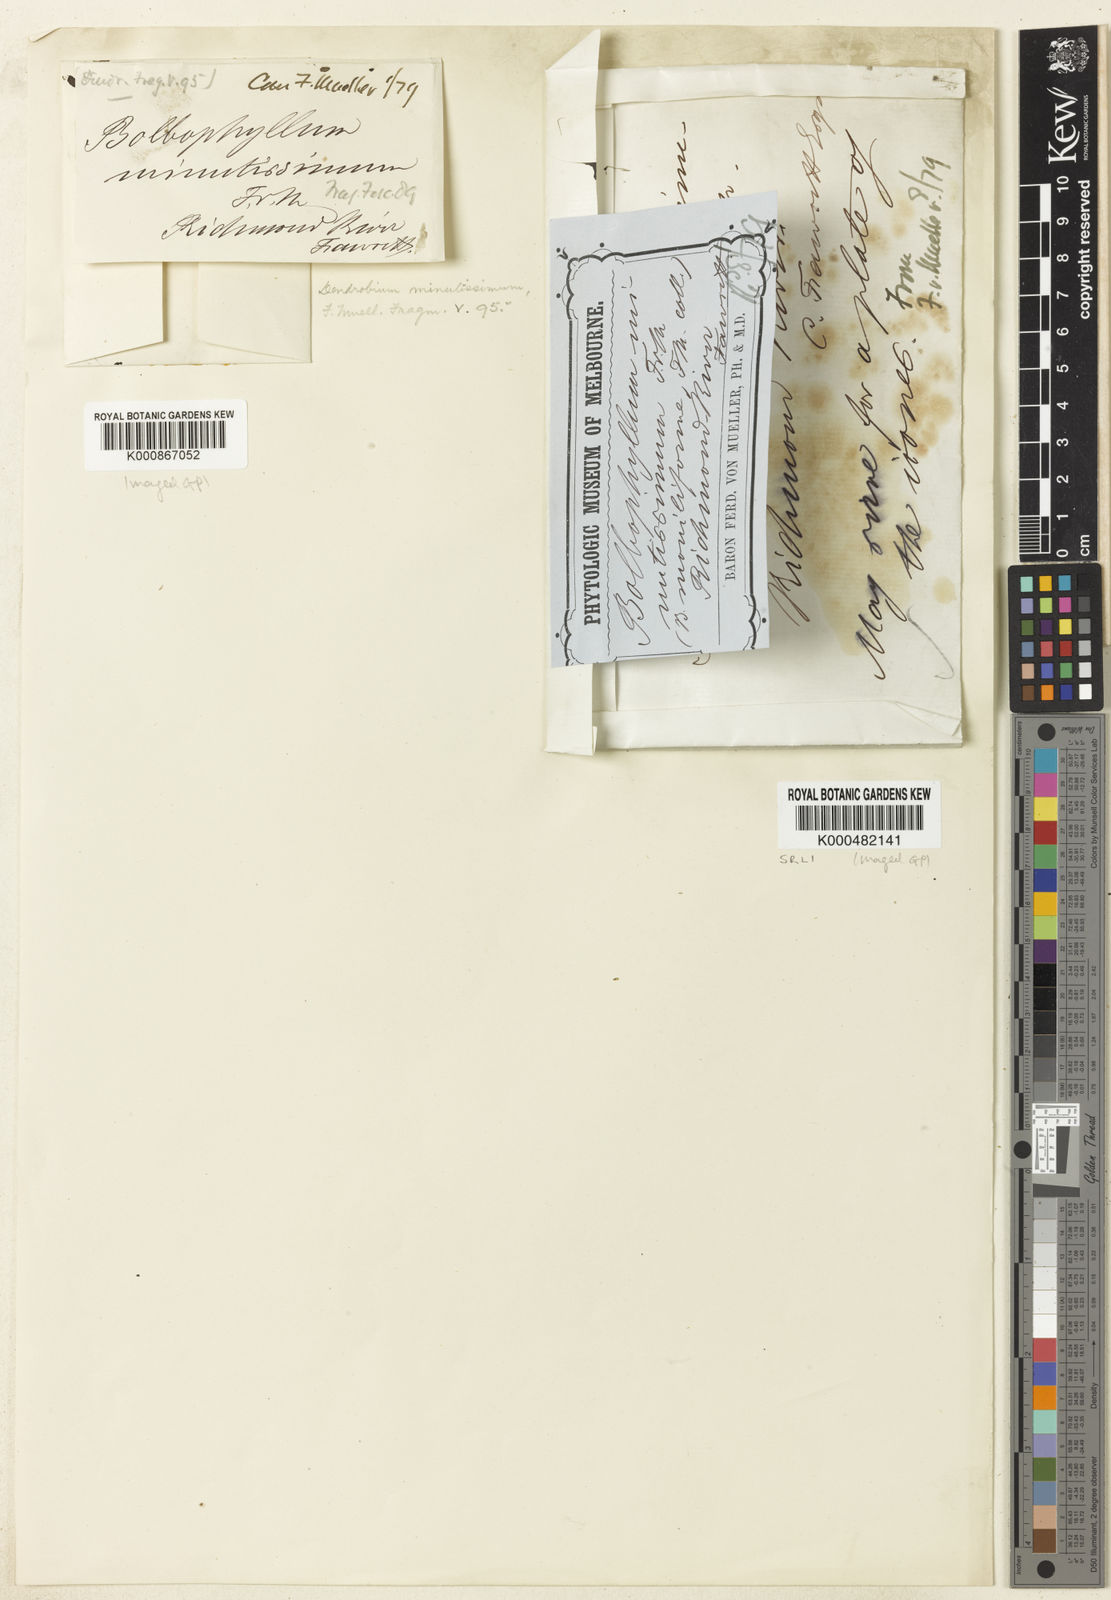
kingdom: Plantae
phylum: Tracheophyta
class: Liliopsida
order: Asparagales
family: Orchidaceae
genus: Bulbophyllum
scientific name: Bulbophyllum minutissimum
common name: Red bead orchid
